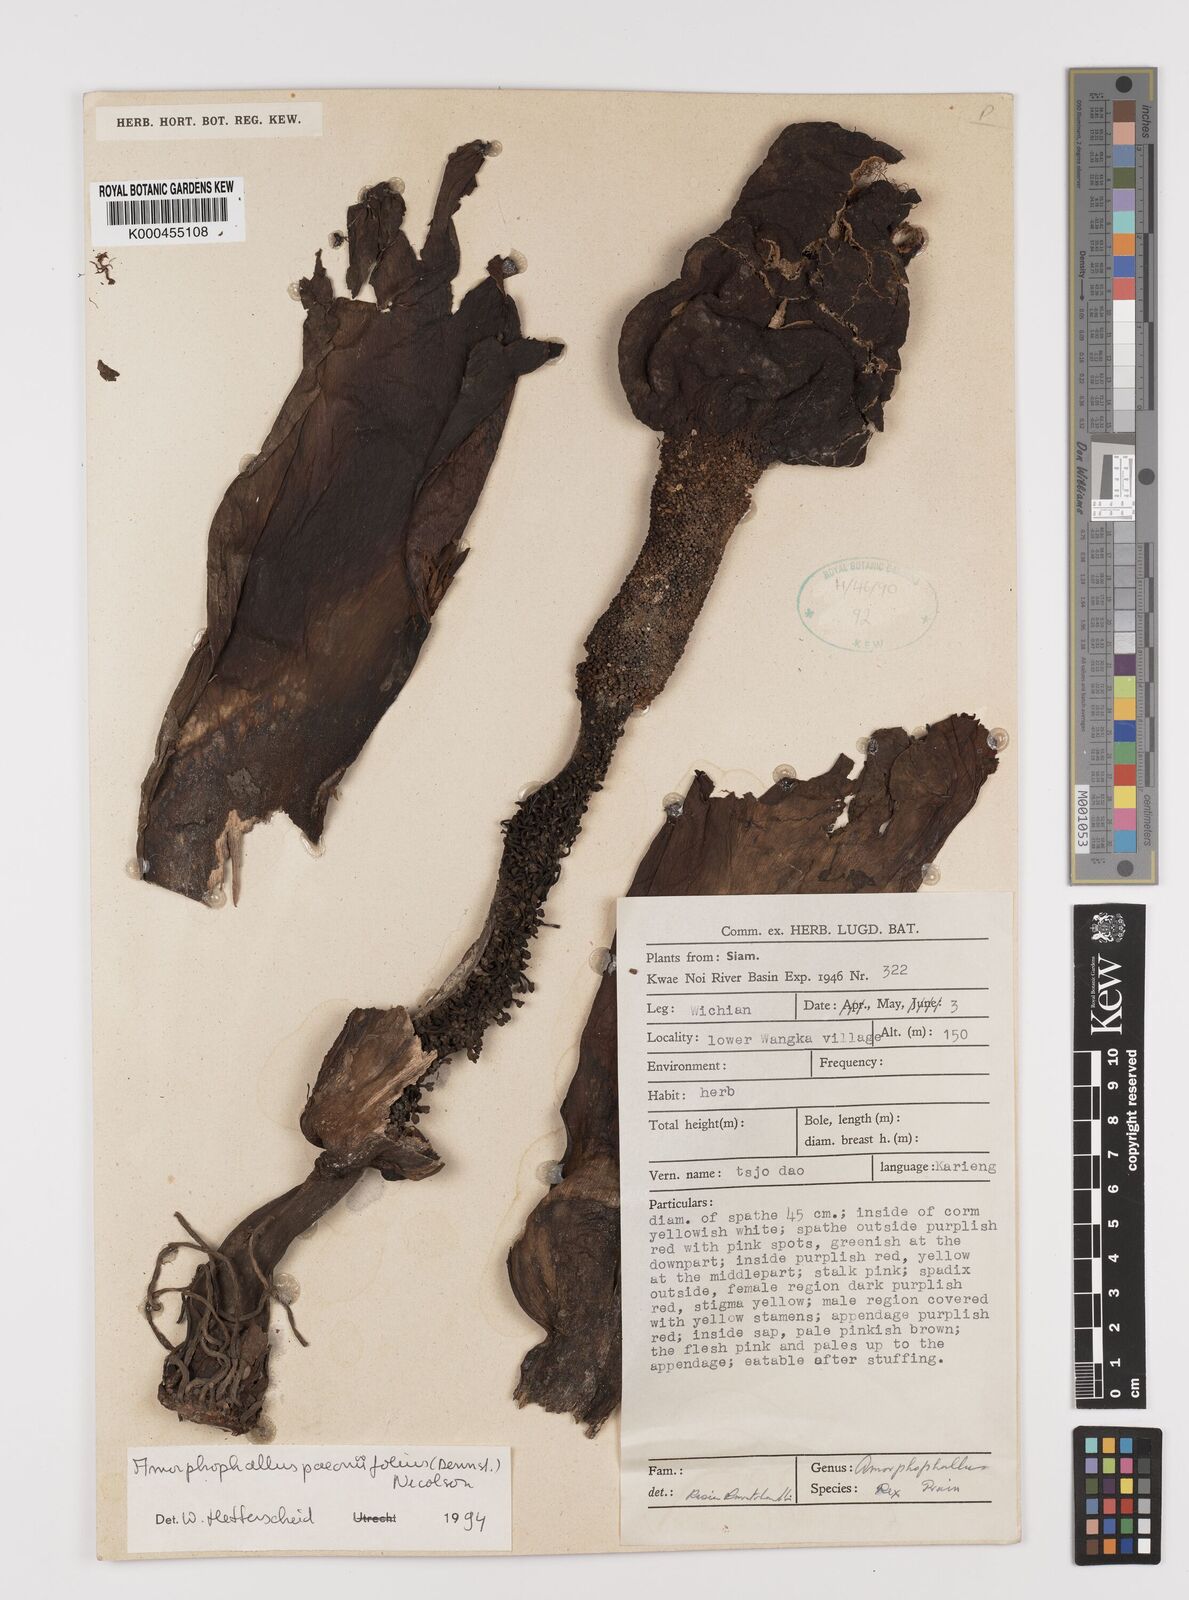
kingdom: Plantae
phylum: Tracheophyta
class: Liliopsida
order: Alismatales
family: Araceae
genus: Amorphophallus
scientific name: Amorphophallus paeoniifolius
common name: Telinga-potato
